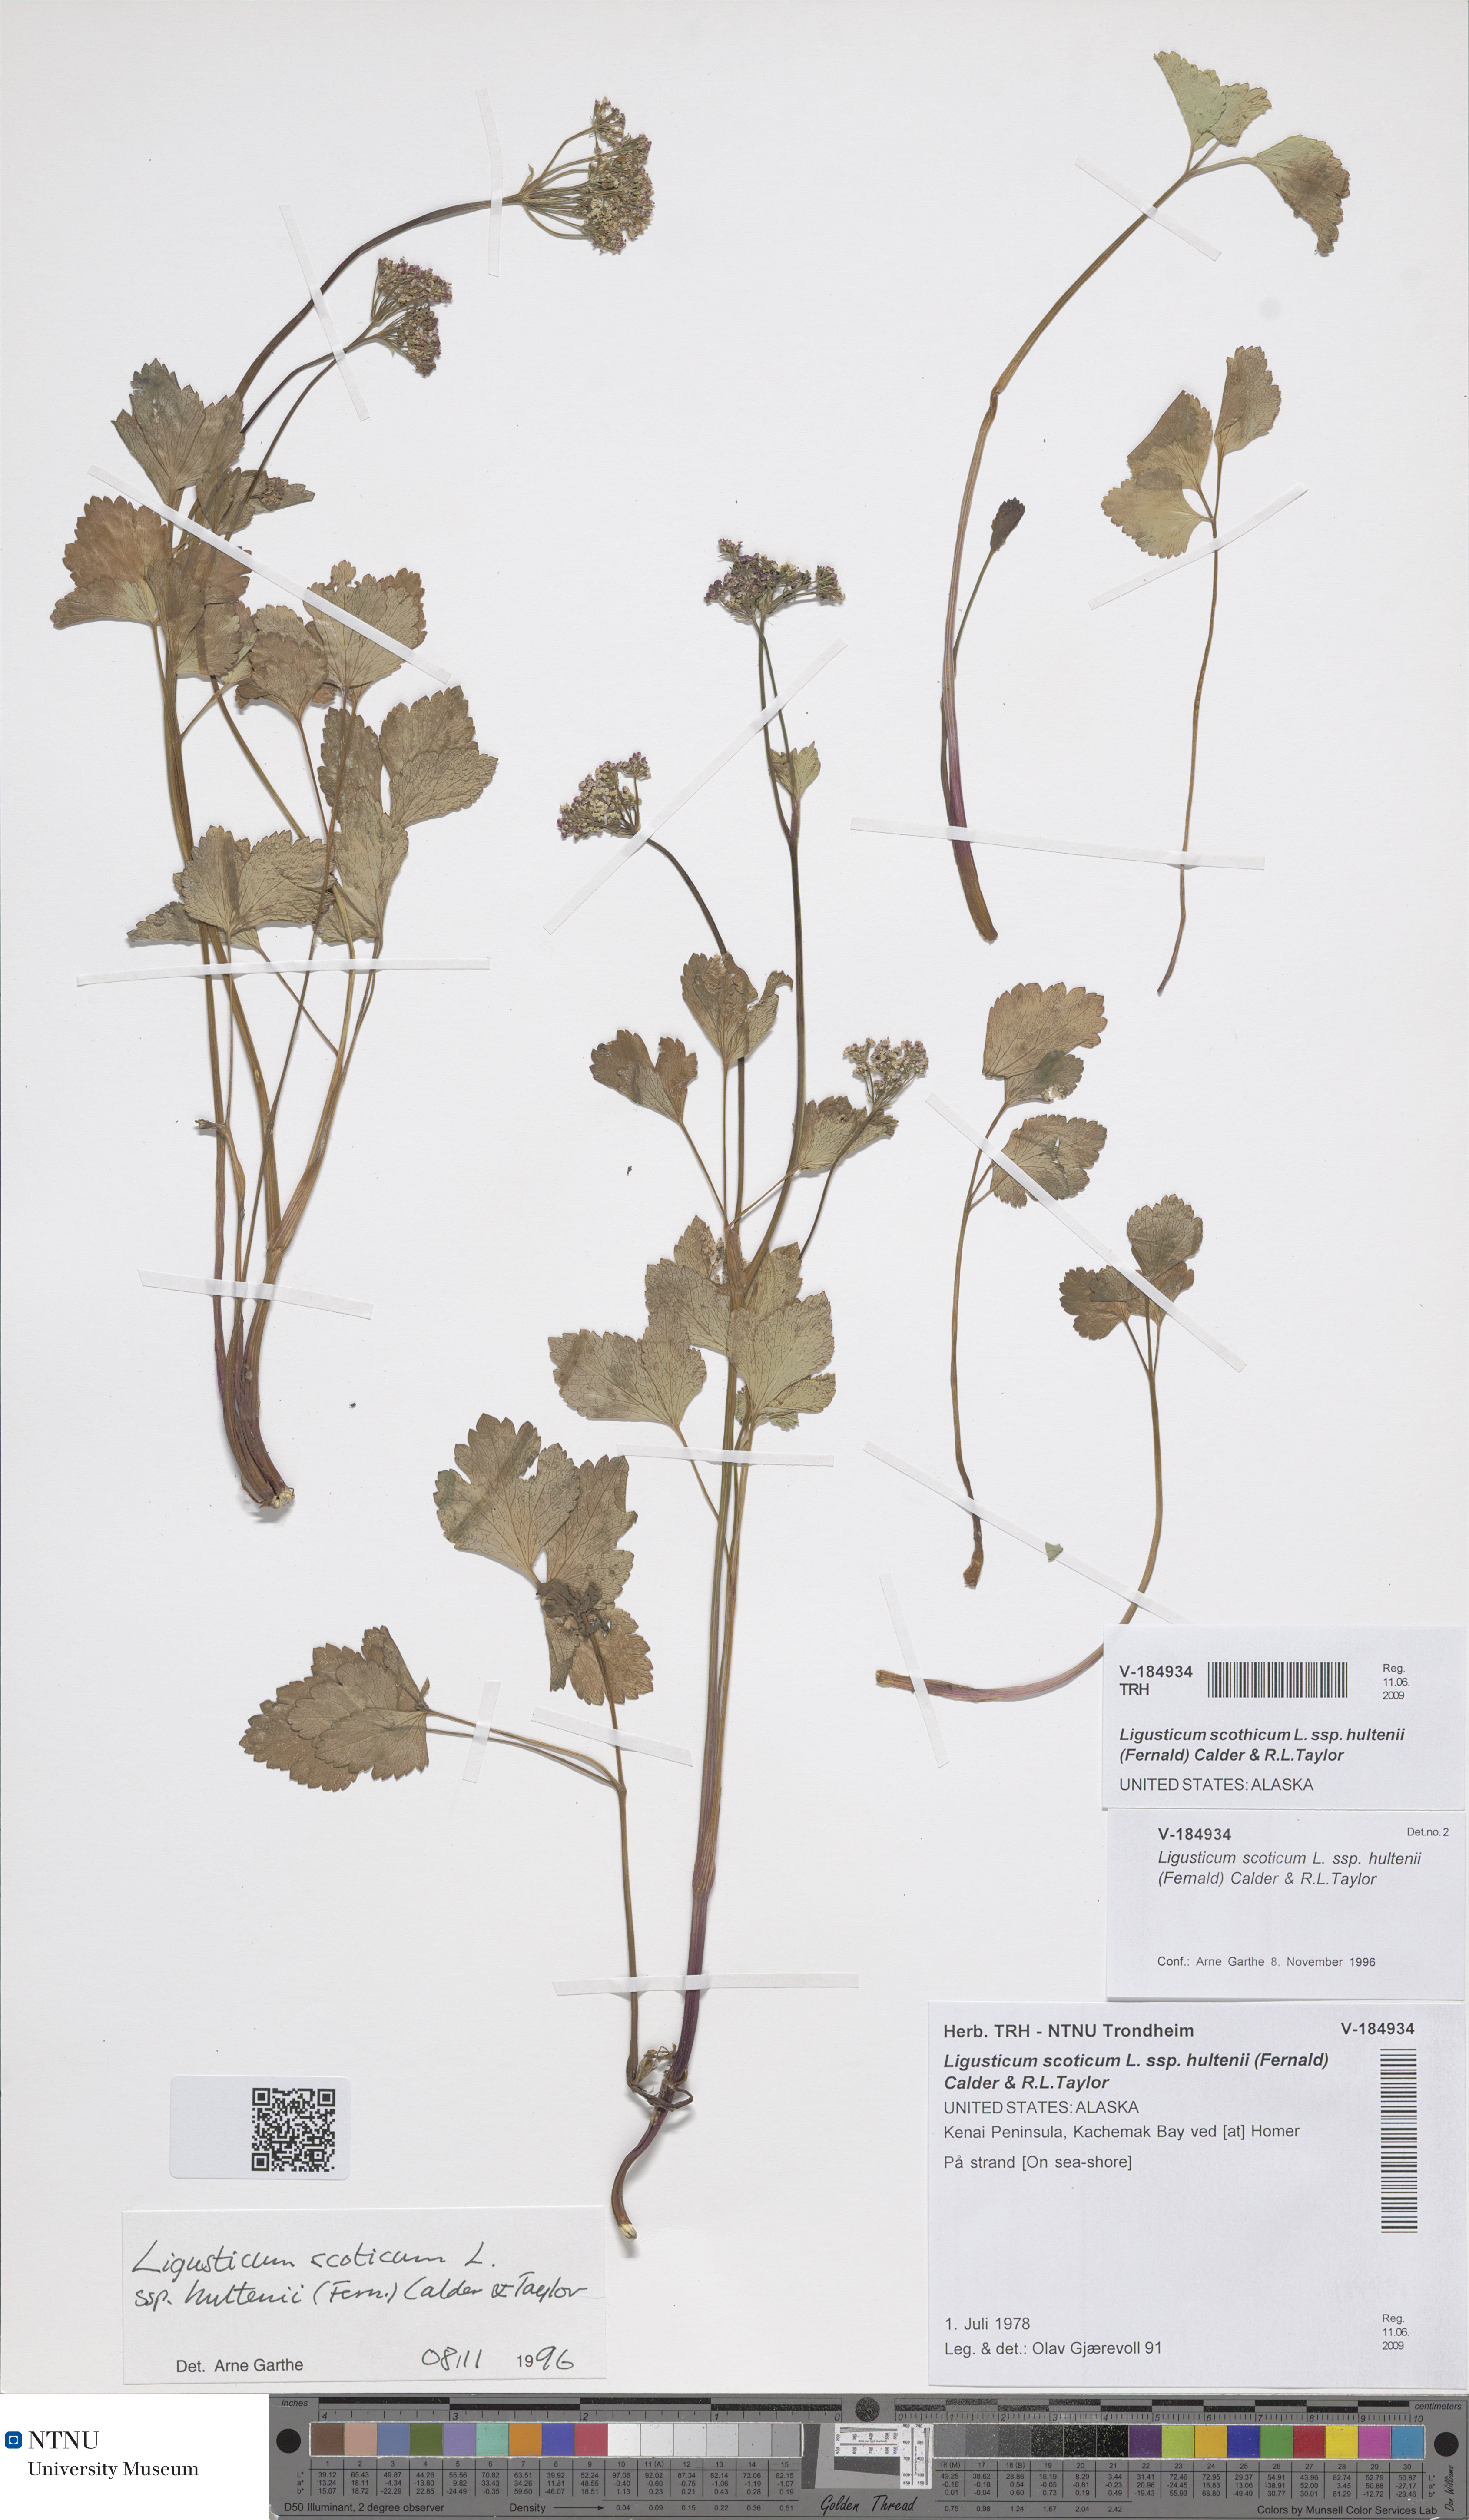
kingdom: Plantae
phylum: Tracheophyta
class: Magnoliopsida
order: Apiales
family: Apiaceae
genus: Ligusticum
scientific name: Ligusticum scothicum
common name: Beach lovage
